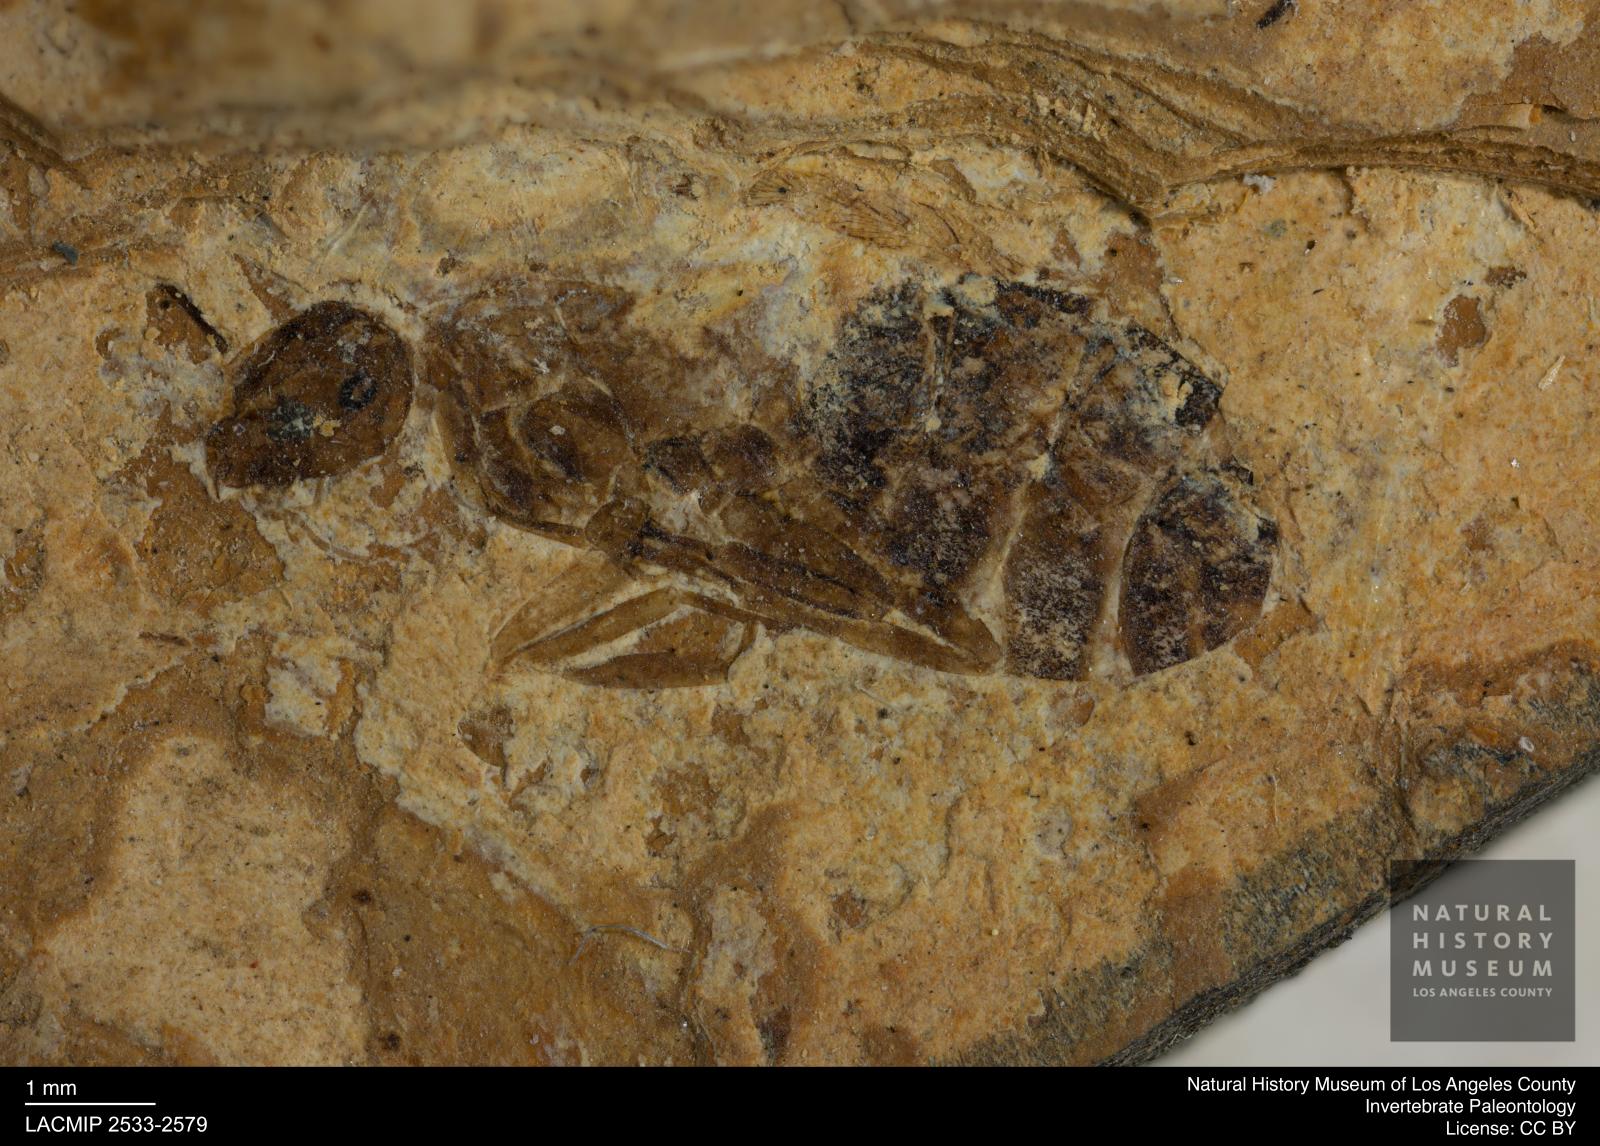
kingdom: Animalia
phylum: Arthropoda
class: Insecta
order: Hymenoptera
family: Formicidae
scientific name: Formicidae
